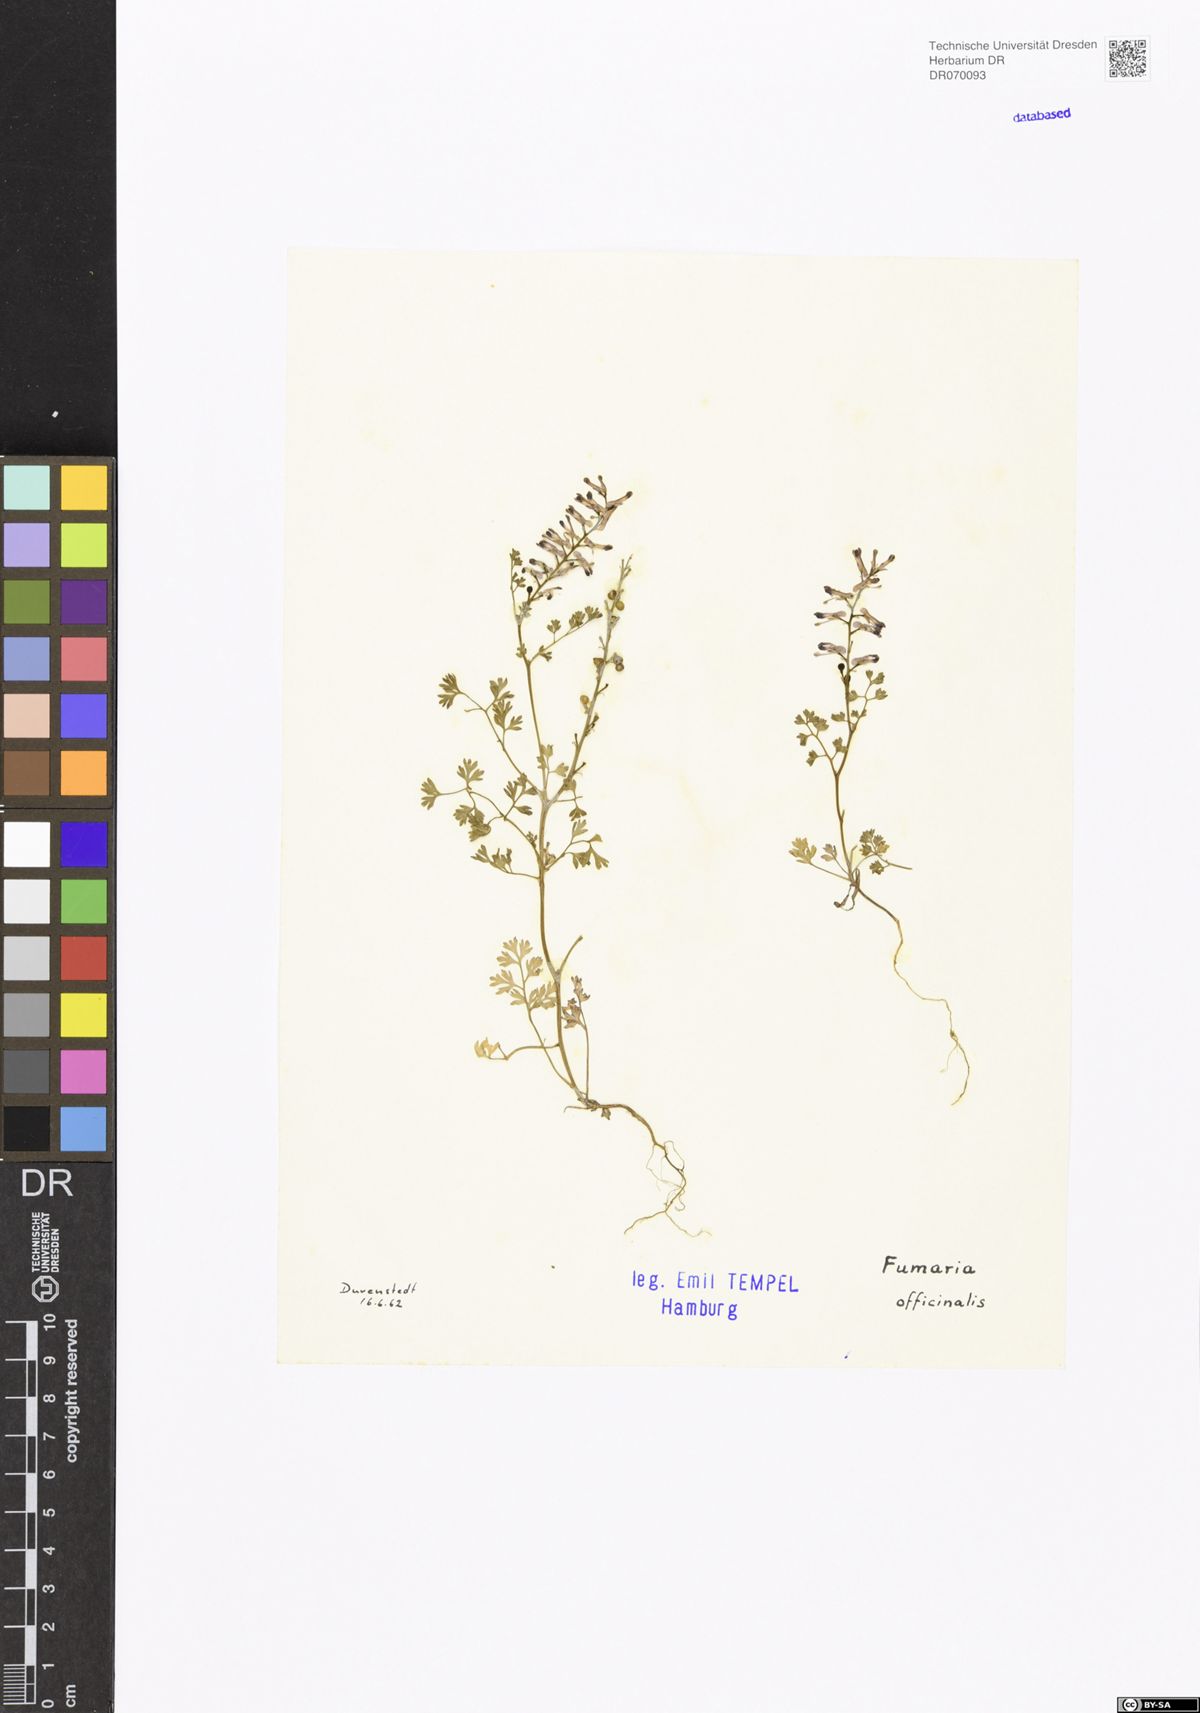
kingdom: Plantae
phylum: Tracheophyta
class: Magnoliopsida
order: Ranunculales
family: Papaveraceae
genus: Fumaria
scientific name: Fumaria officinalis
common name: Common fumitory
